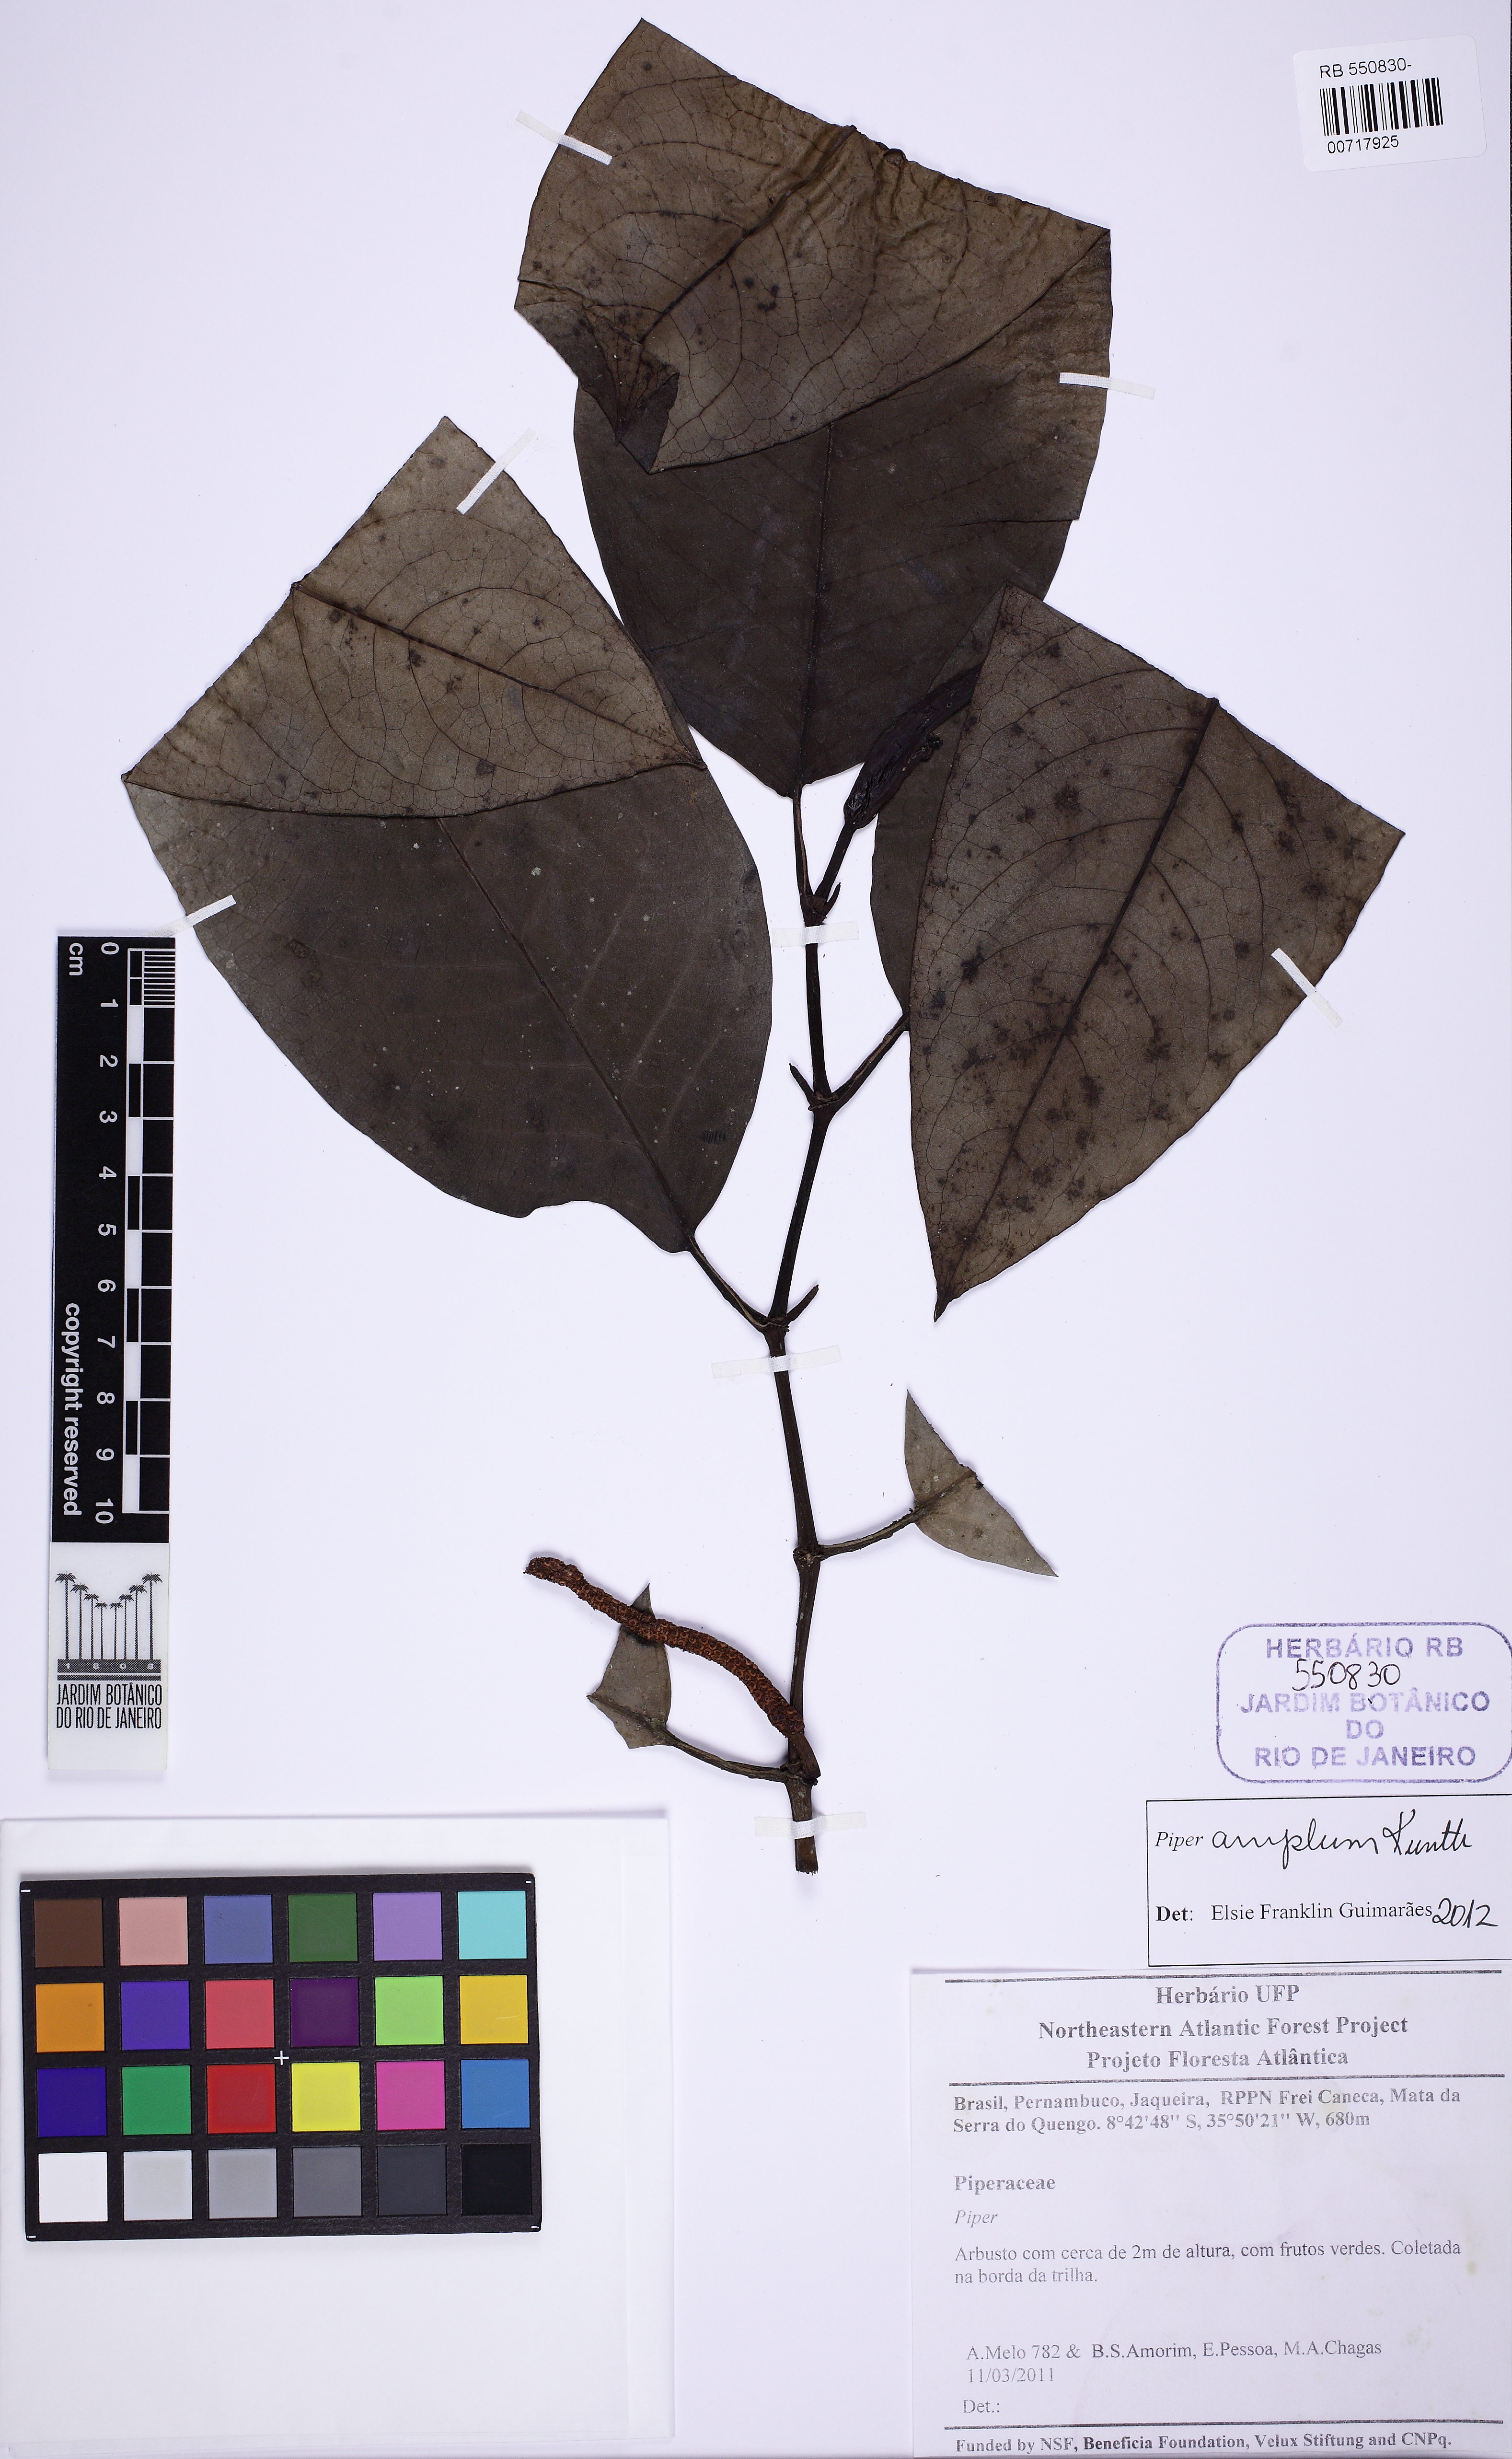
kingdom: Plantae
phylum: Tracheophyta
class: Magnoliopsida
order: Piperales
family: Piperaceae
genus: Piper
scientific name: Piper fluminense
